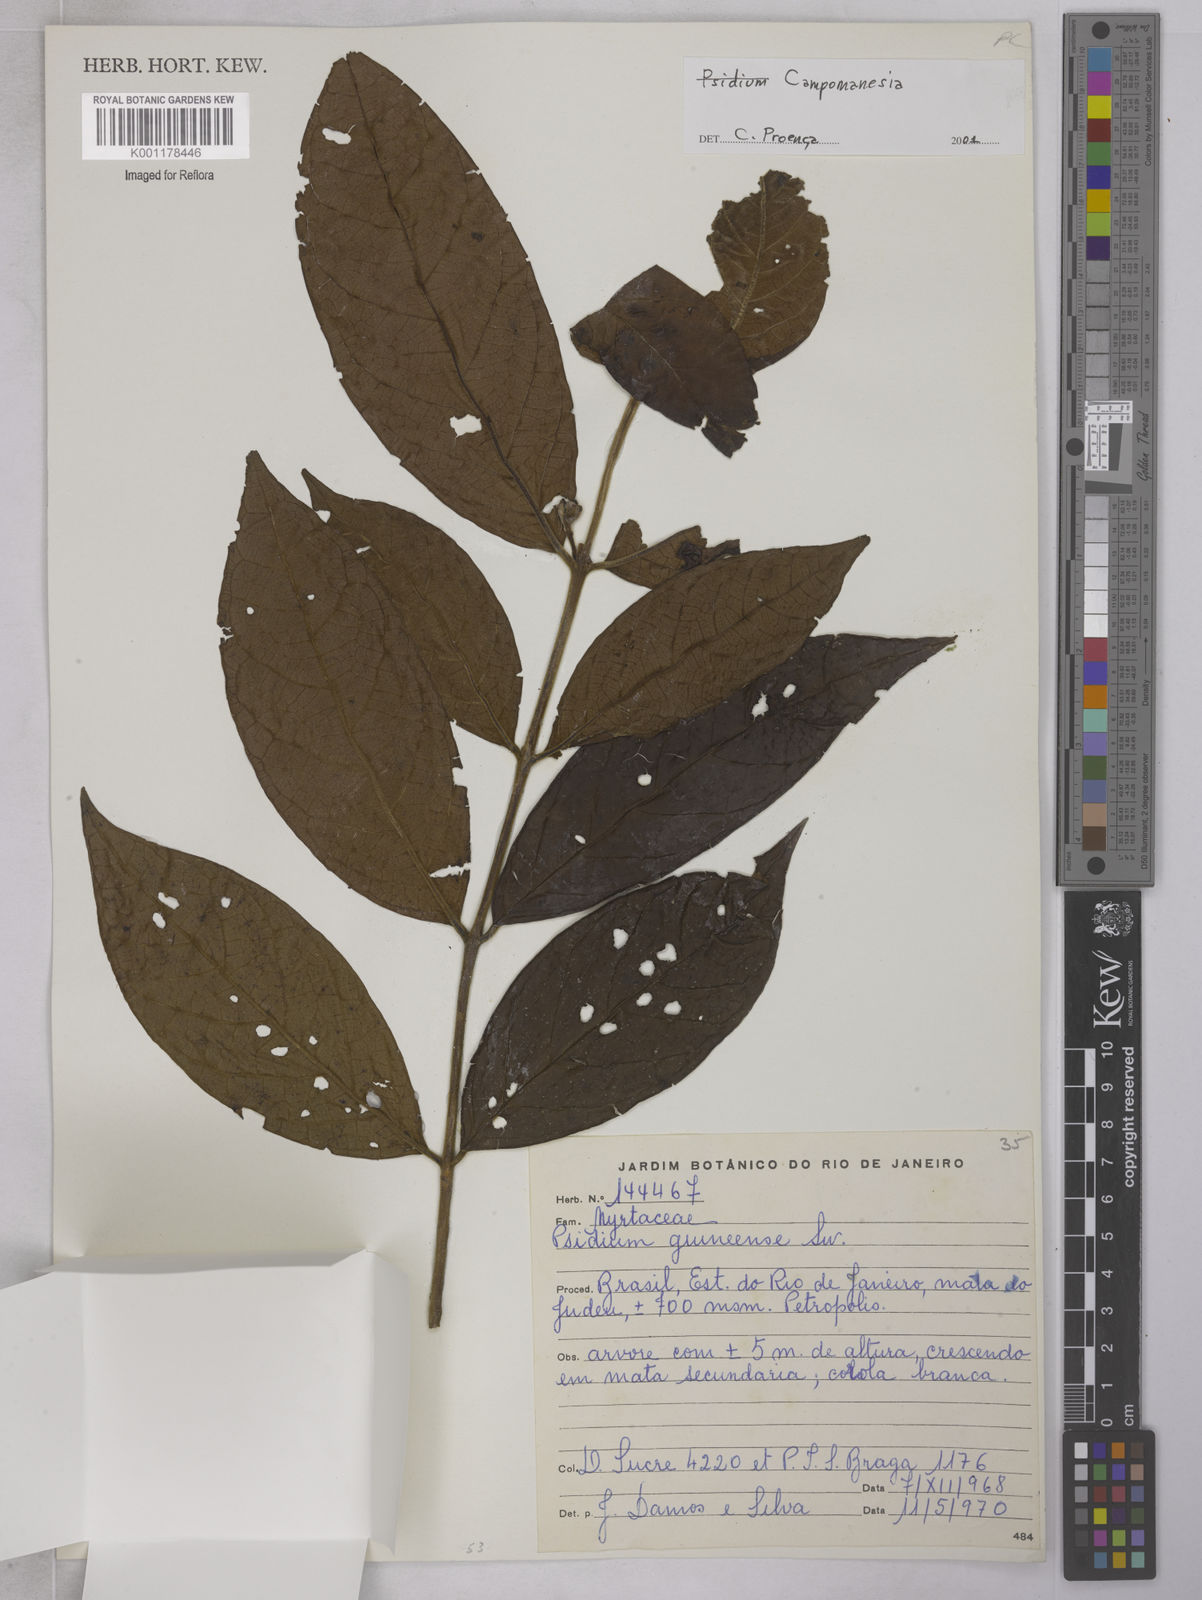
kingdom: Plantae
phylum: Tracheophyta
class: Magnoliopsida
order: Myrtales
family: Myrtaceae
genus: Campomanesia
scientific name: Campomanesia
